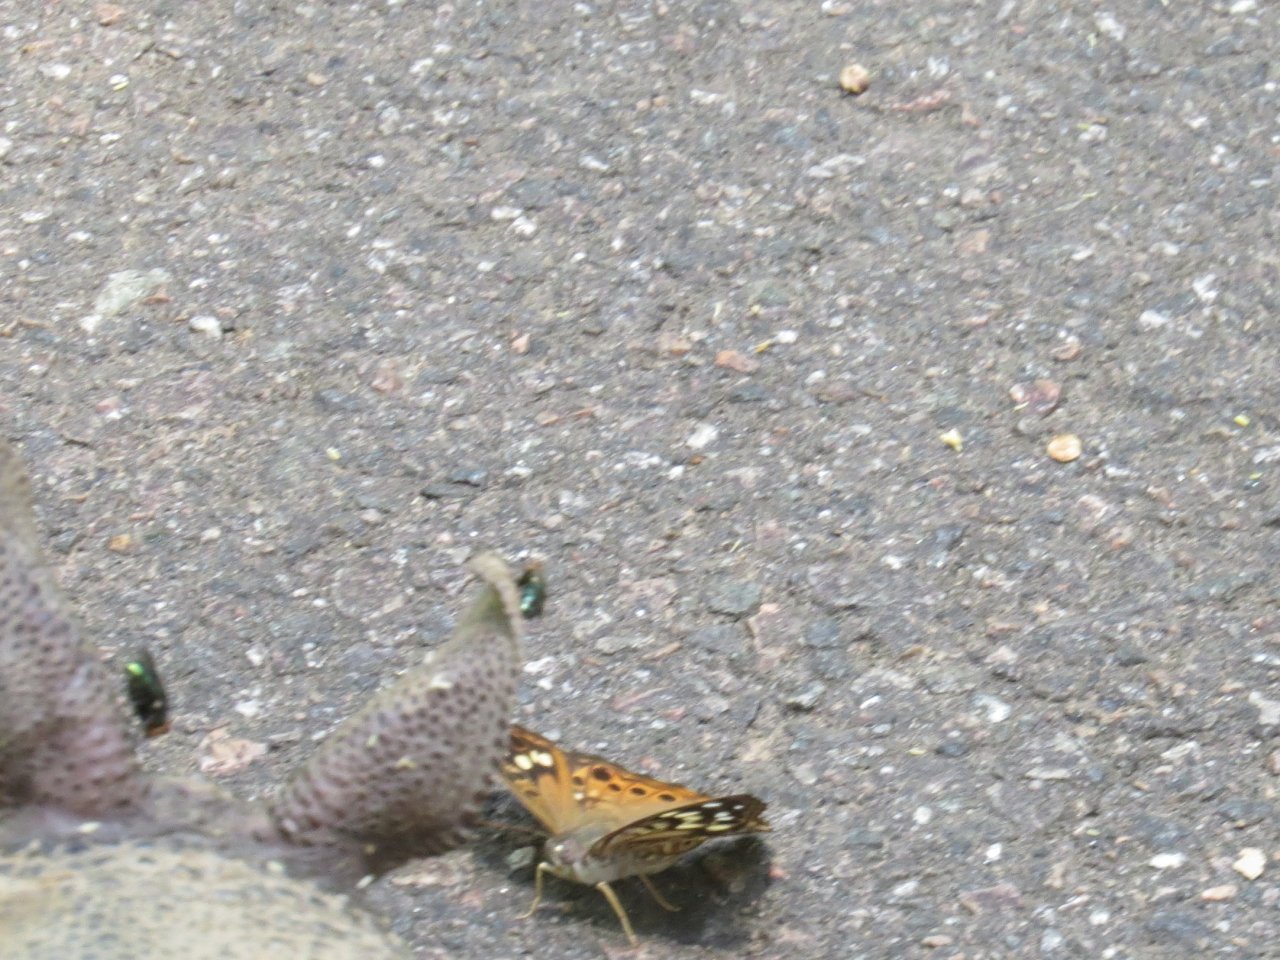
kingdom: Animalia
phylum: Arthropoda
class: Insecta
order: Lepidoptera
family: Nymphalidae
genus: Asterocampa
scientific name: Asterocampa celtis
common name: Hackberry Emperor
